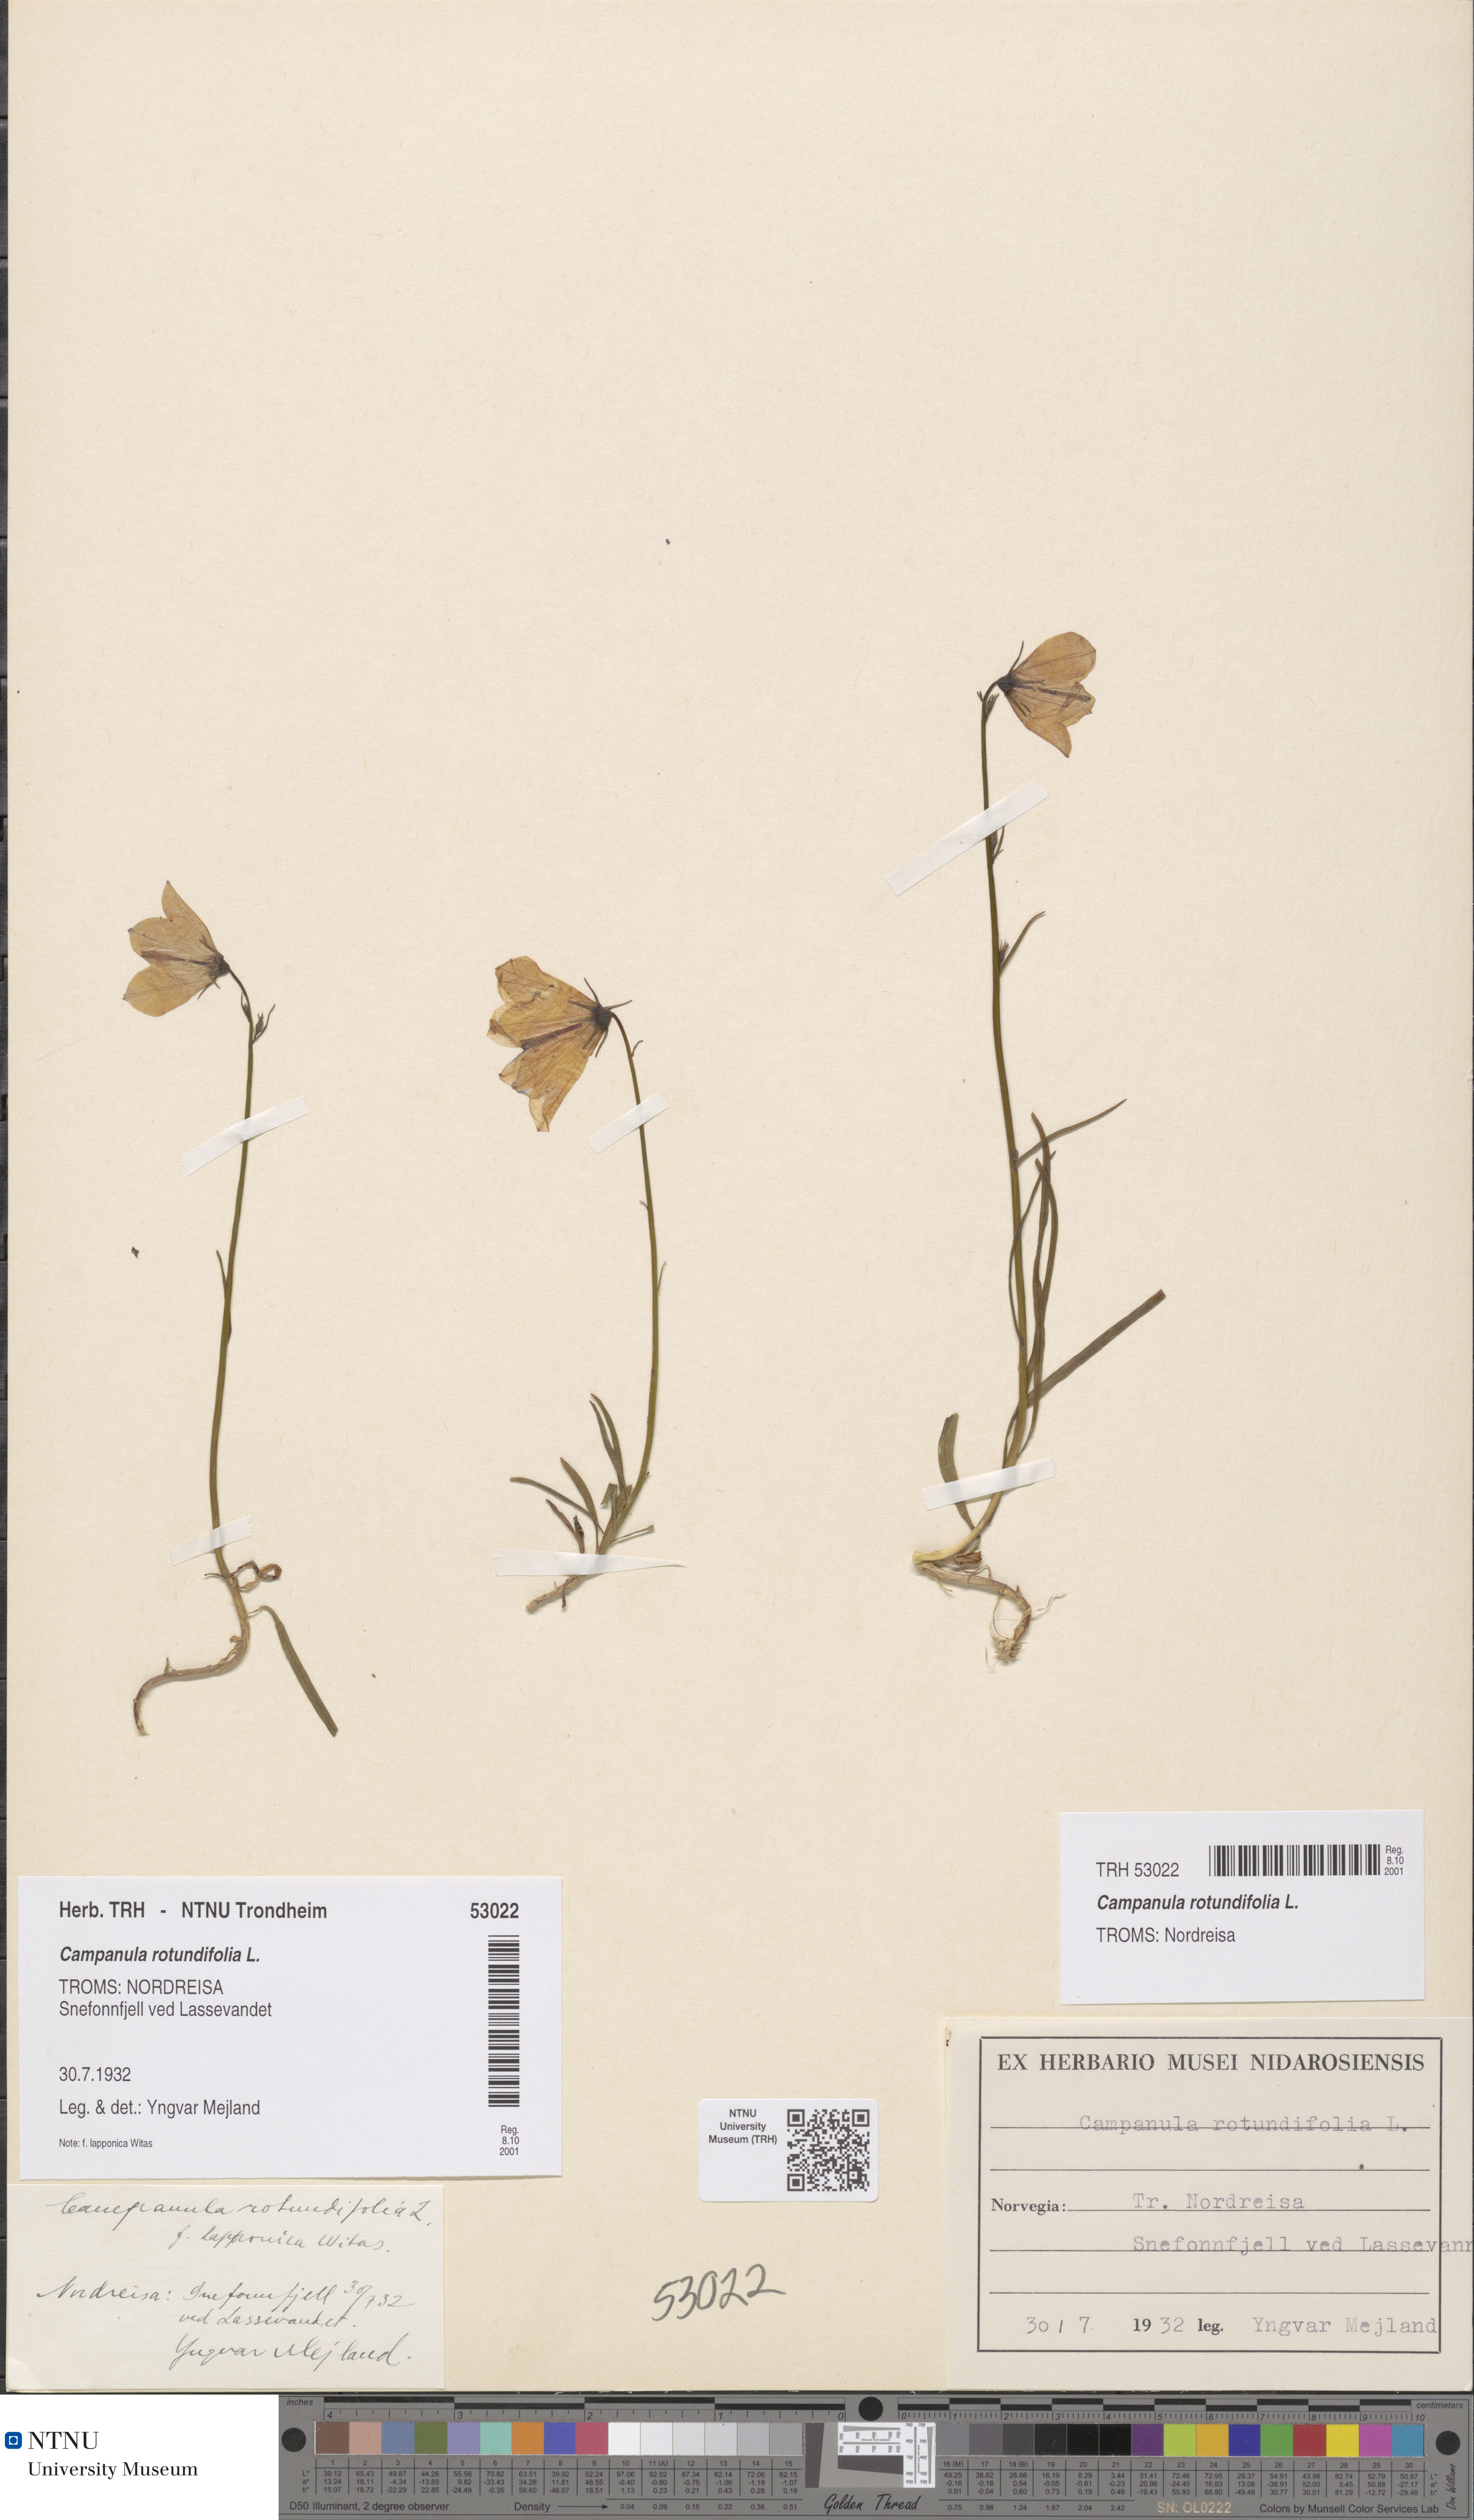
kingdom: Plantae
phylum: Tracheophyta
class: Magnoliopsida
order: Asterales
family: Campanulaceae
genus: Campanula
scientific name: Campanula rotundifolia
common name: Harebell
